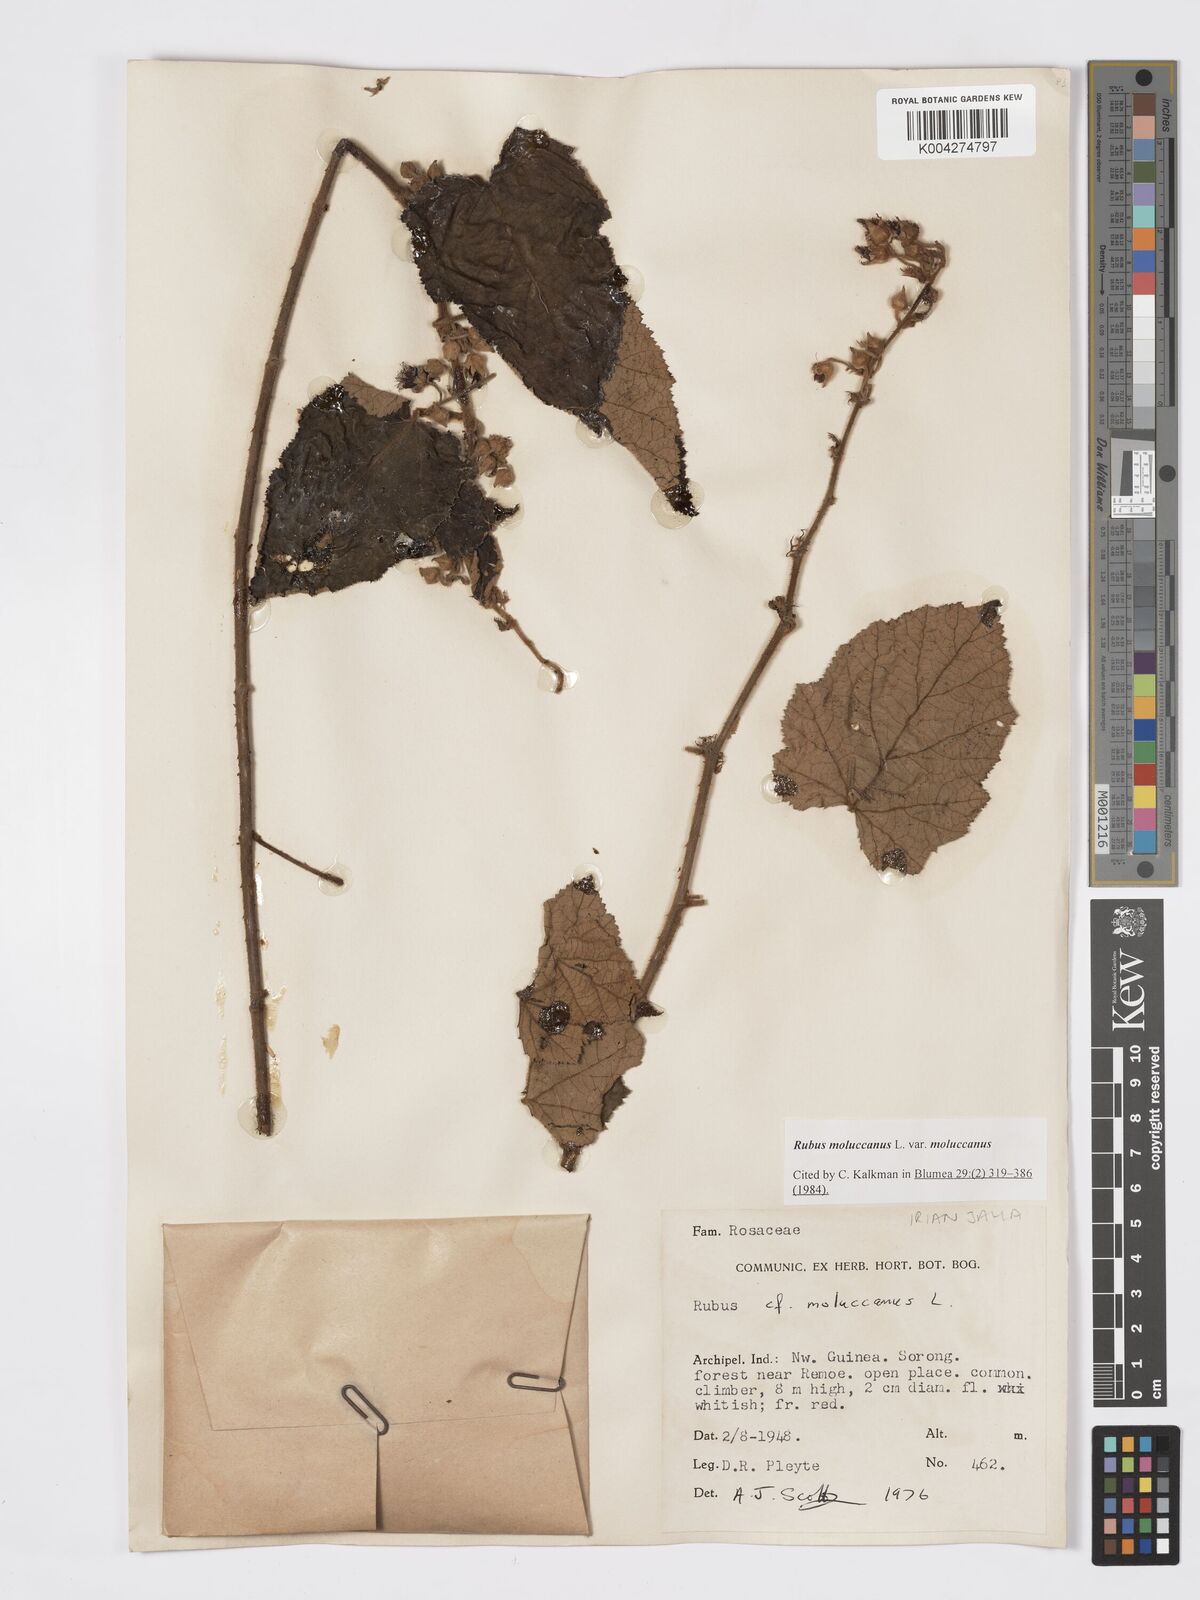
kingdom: Plantae
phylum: Tracheophyta
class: Magnoliopsida
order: Rosales
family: Rosaceae
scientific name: Rosaceae
